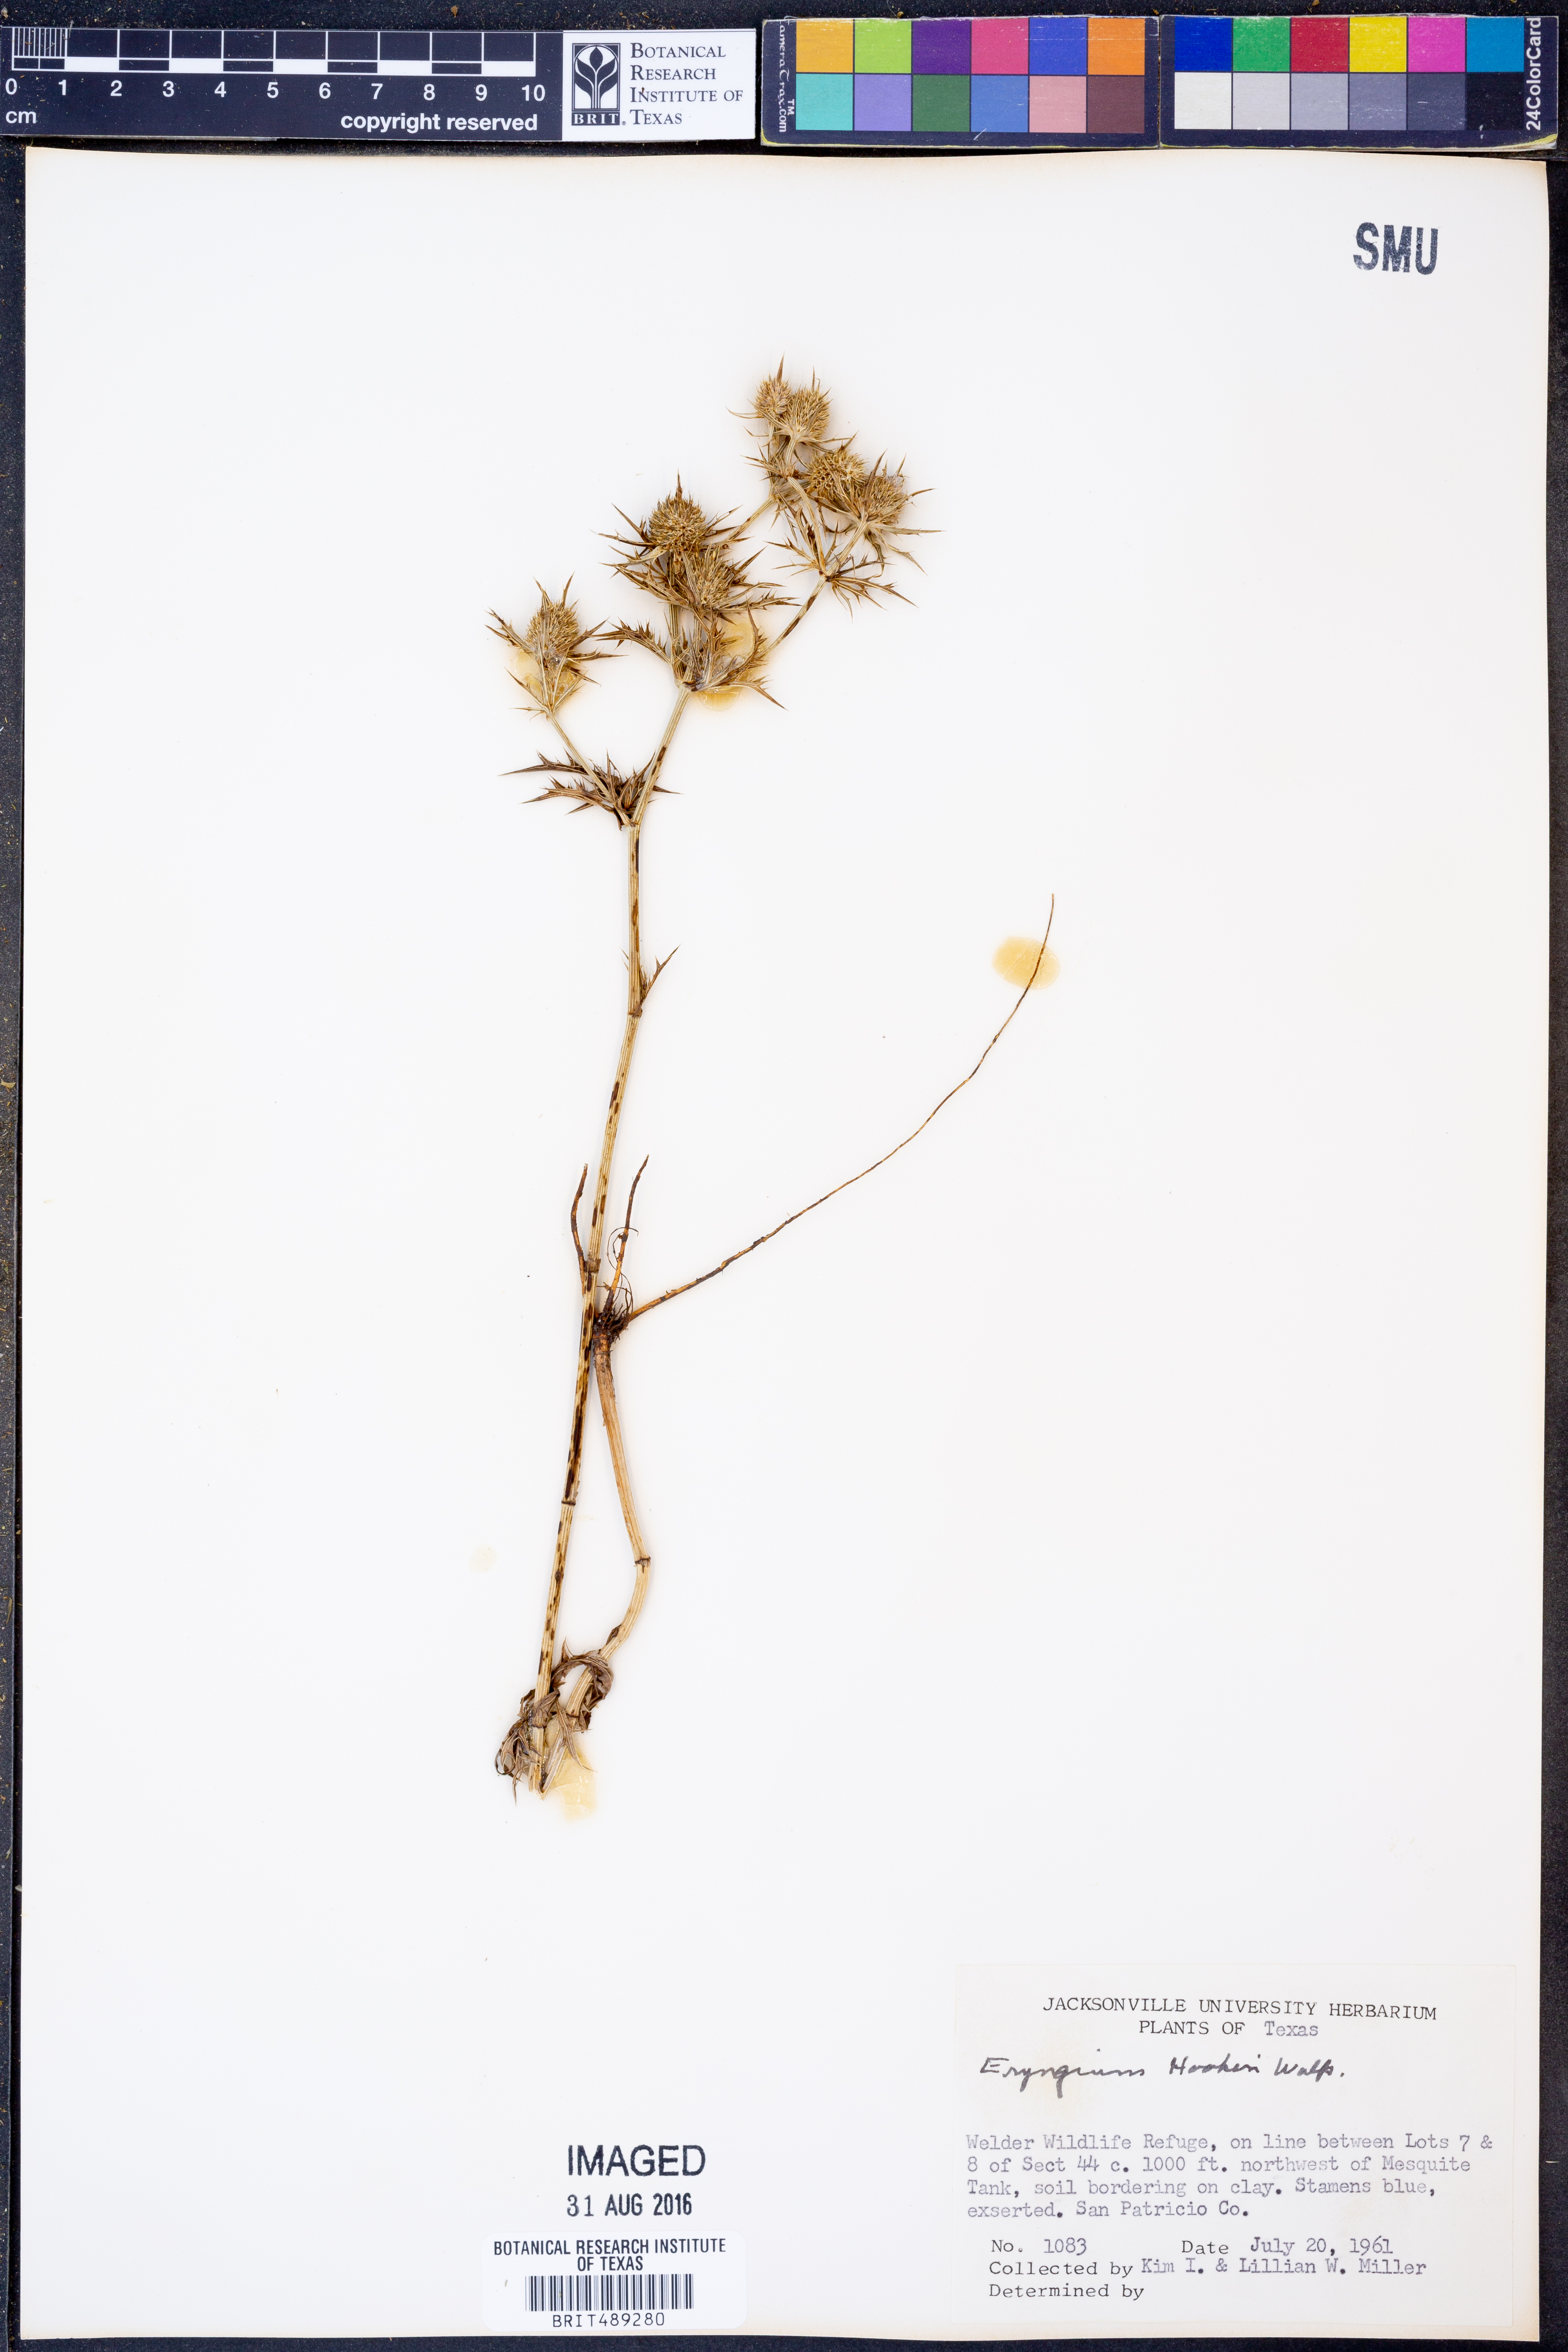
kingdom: Plantae
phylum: Tracheophyta
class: Magnoliopsida
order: Apiales
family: Apiaceae
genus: Eryngium
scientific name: Eryngium hookeri
